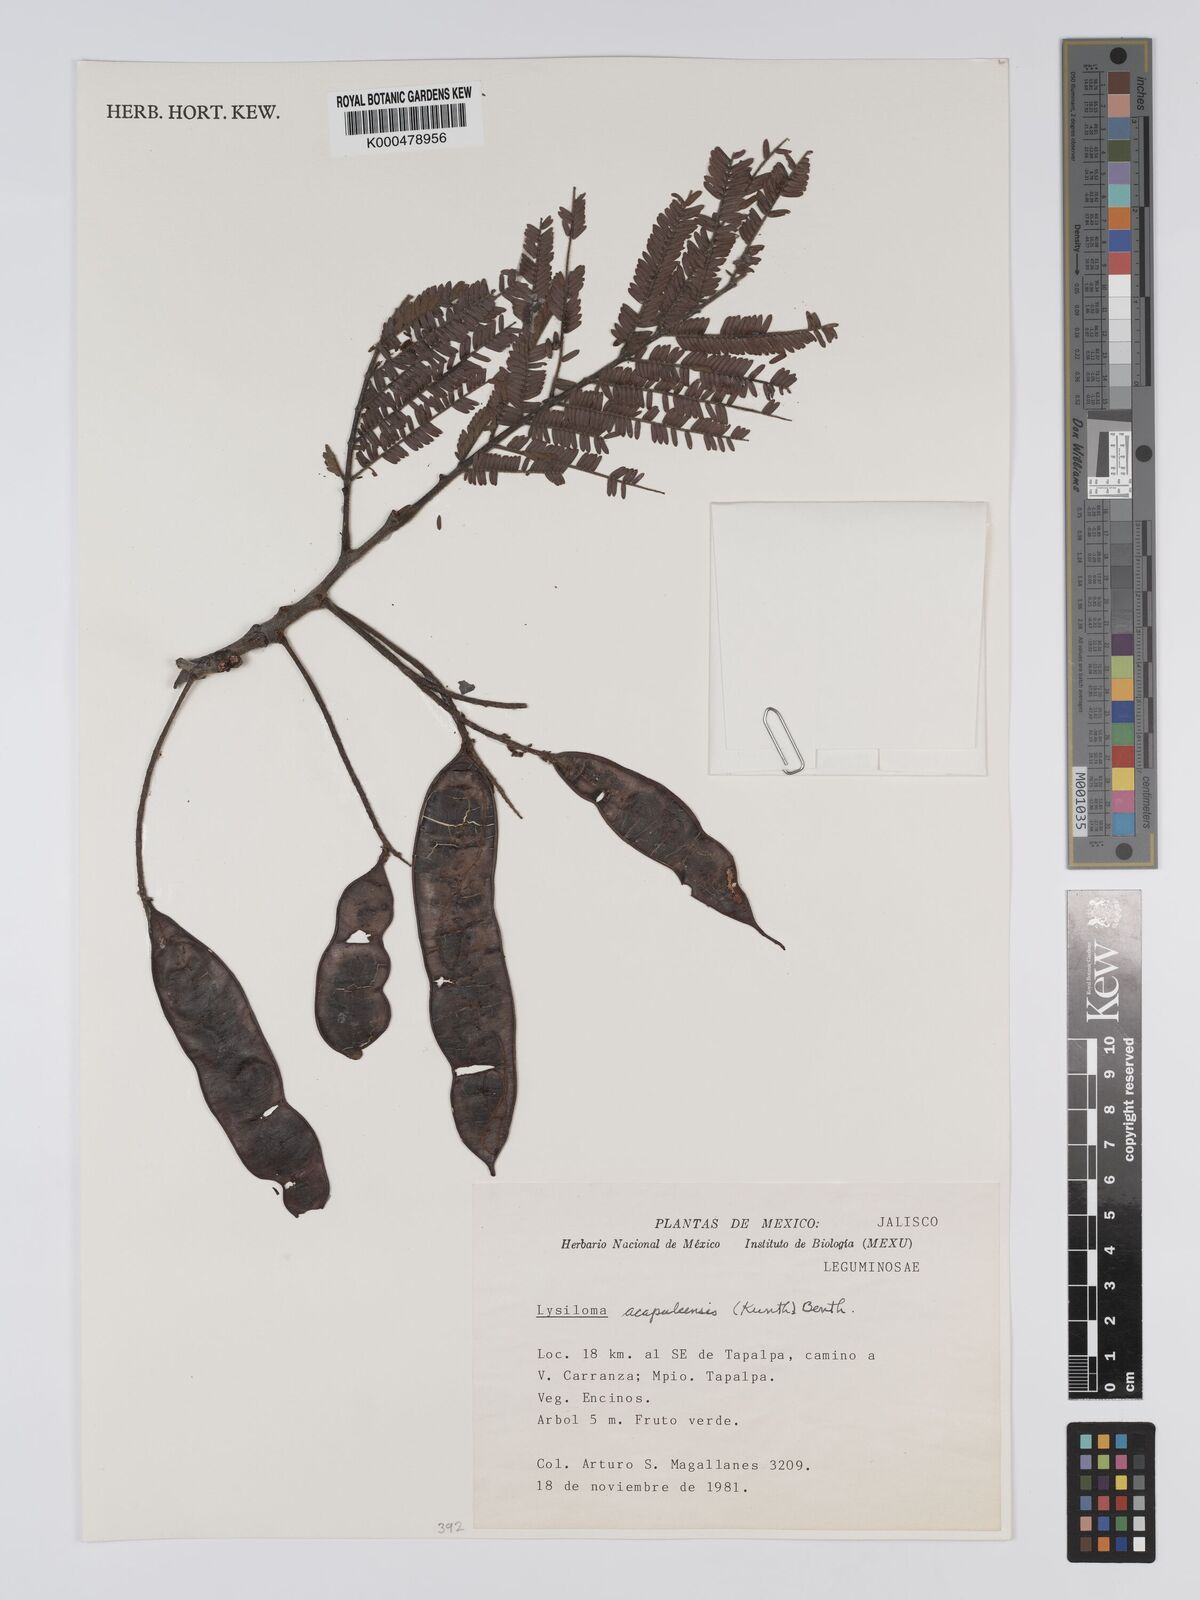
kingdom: Plantae
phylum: Tracheophyta
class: Magnoliopsida
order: Fabales
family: Fabaceae
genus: Lysiloma
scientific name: Lysiloma
